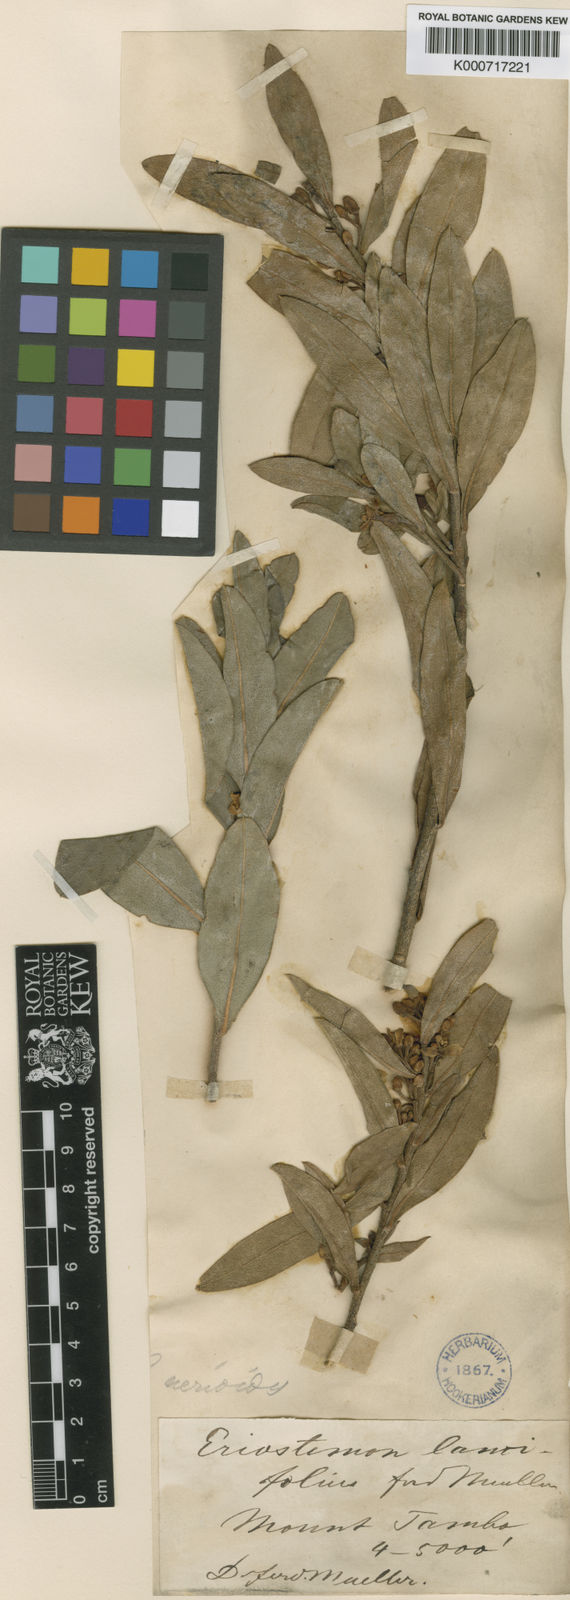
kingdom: Plantae
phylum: Tracheophyta
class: Magnoliopsida
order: Sapindales
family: Rutaceae
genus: Philotheca
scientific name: Philotheca myoporoides
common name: Longleaf waxflower
